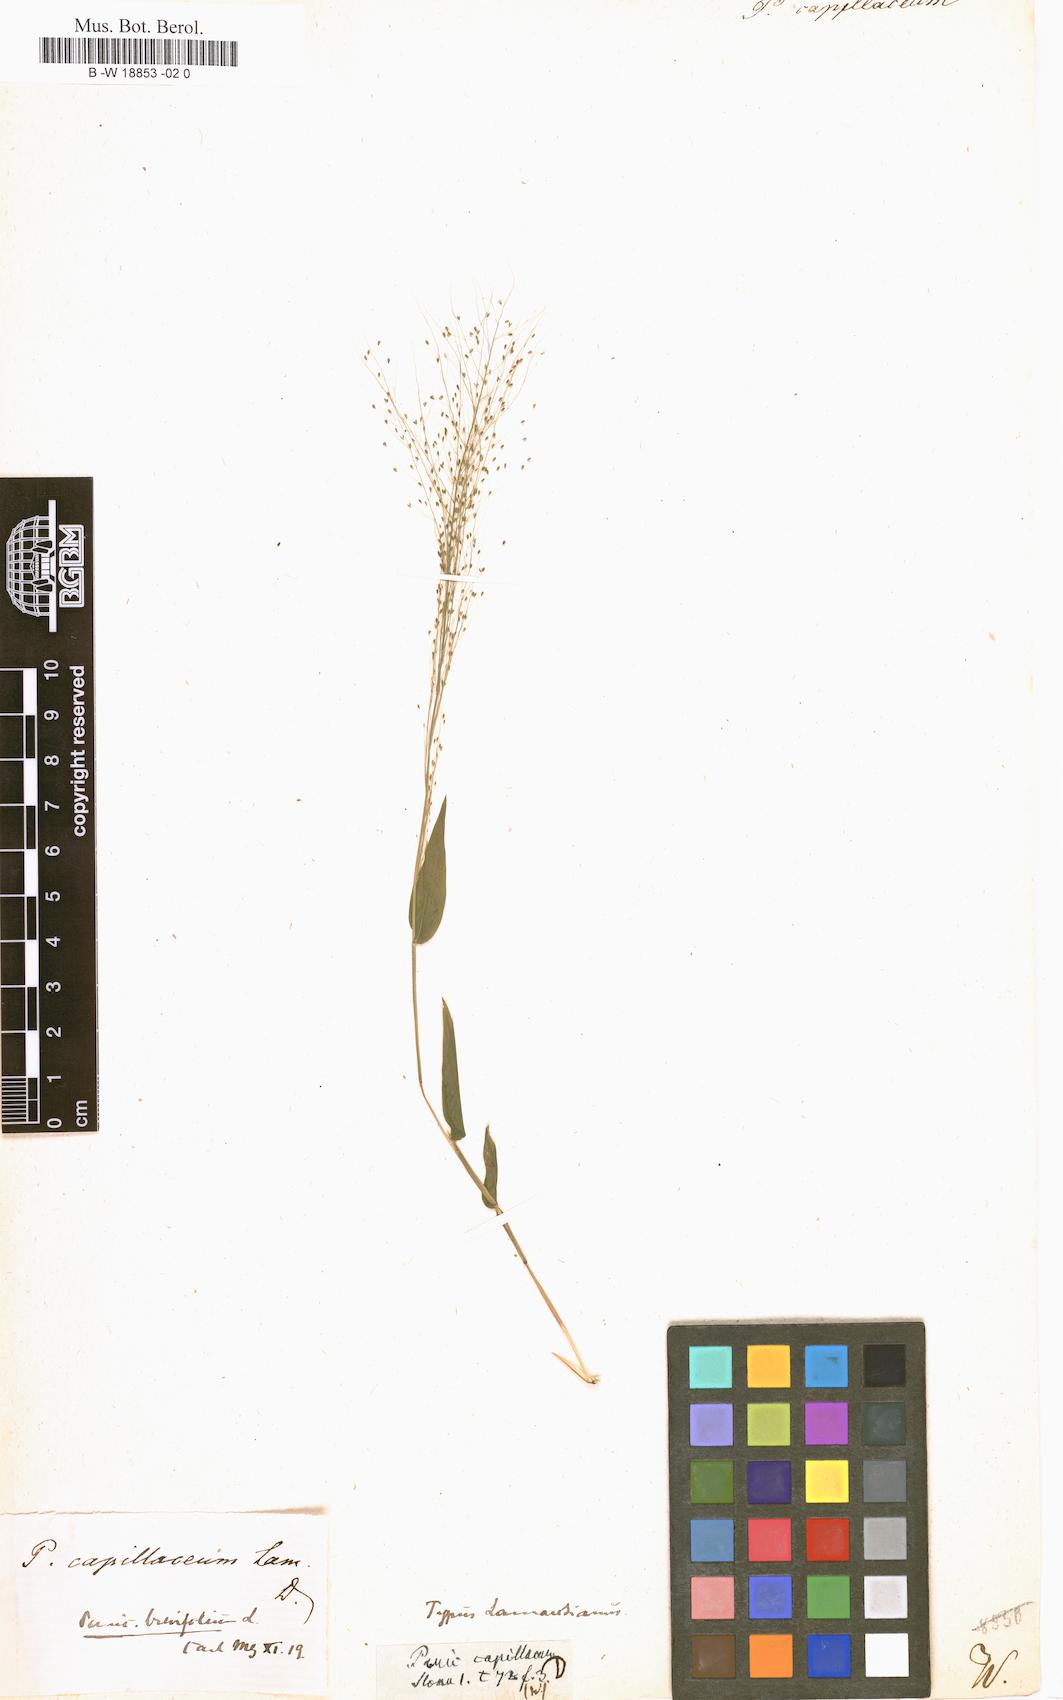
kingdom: Plantae
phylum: Tracheophyta
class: Liliopsida
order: Poales
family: Poaceae
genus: Panicum
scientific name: Panicum trichoides
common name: Tickle grass
